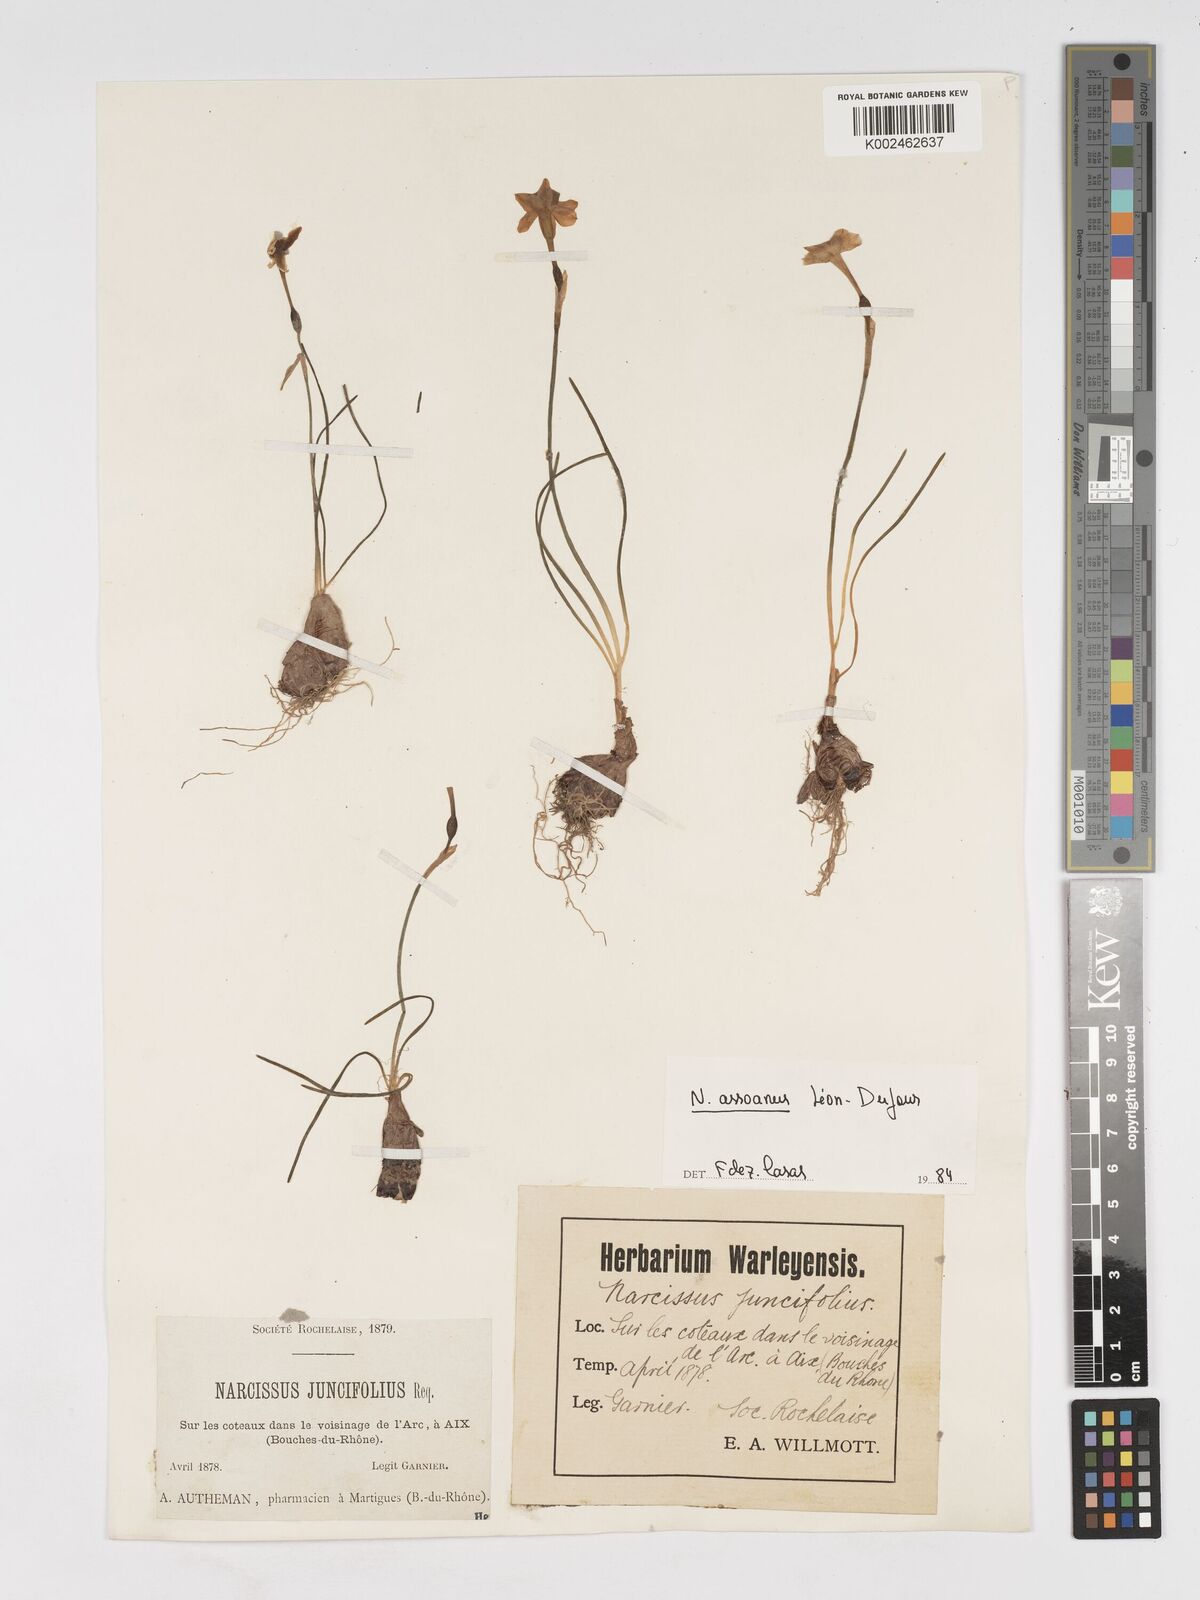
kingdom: Plantae
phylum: Tracheophyta
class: Liliopsida
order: Asparagales
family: Amaryllidaceae
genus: Narcissus
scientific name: Narcissus assoanus
